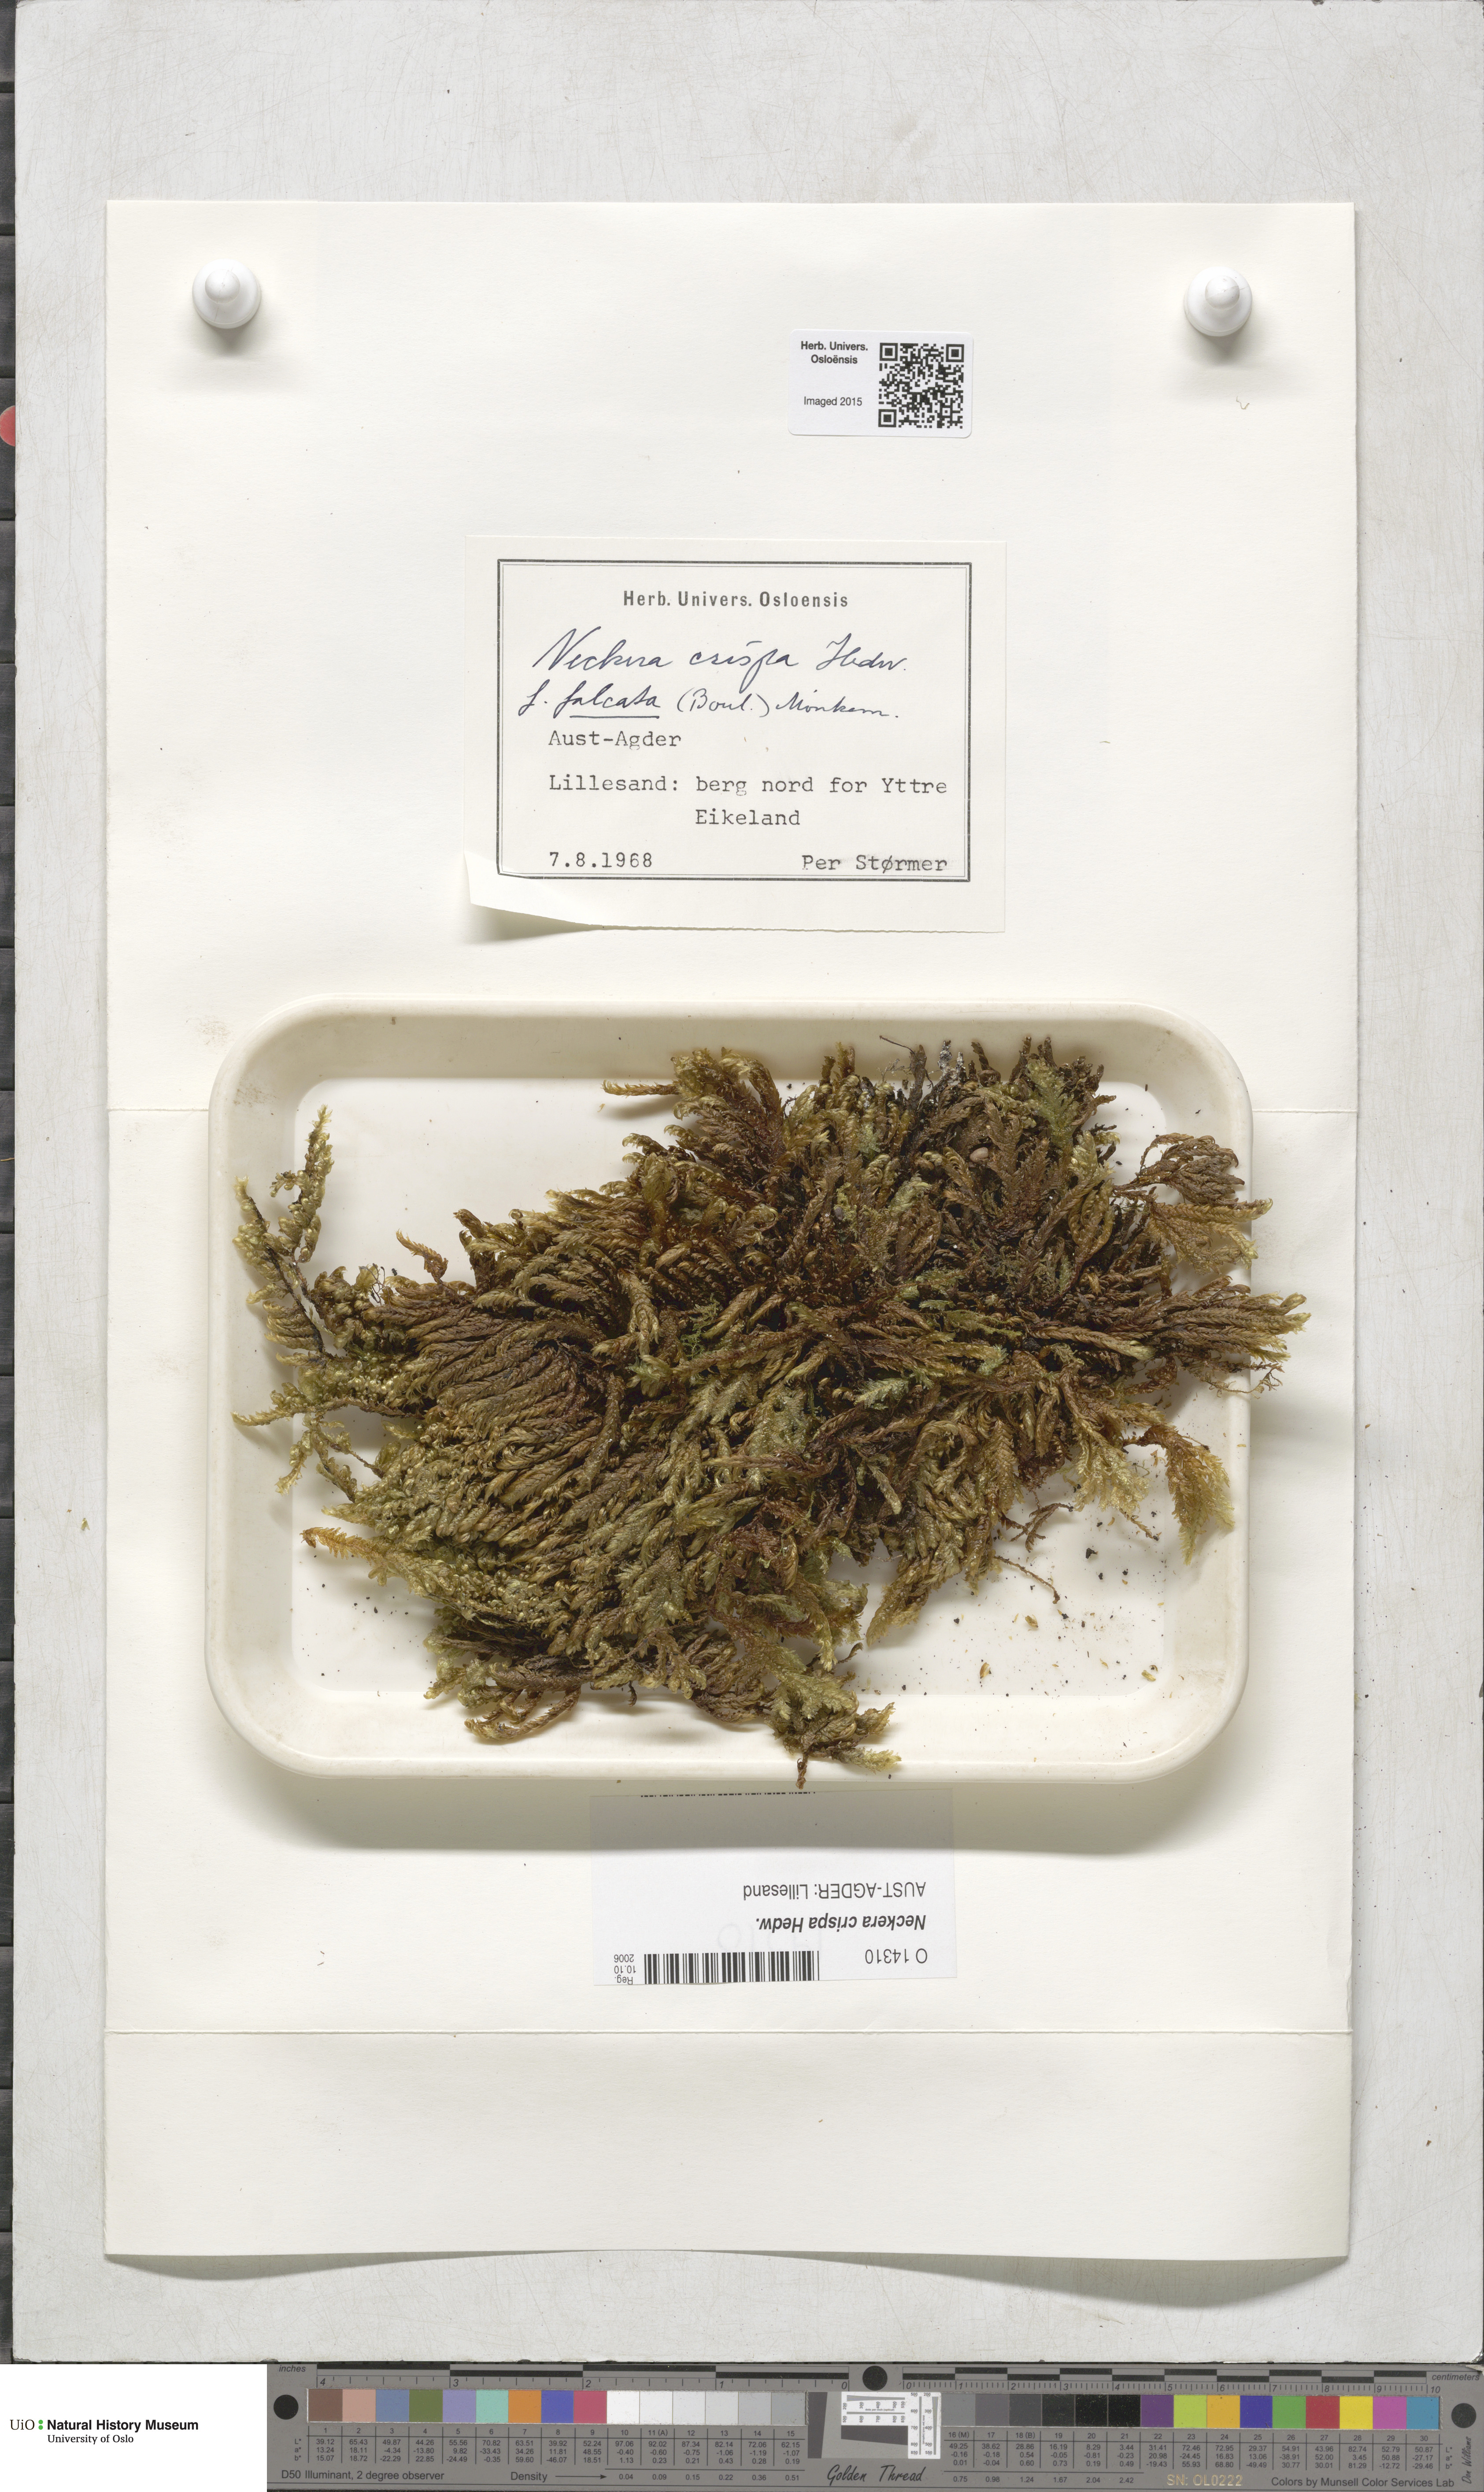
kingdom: Plantae
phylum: Bryophyta
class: Bryopsida
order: Hypnales
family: Neckeraceae
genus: Exsertotheca
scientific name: Exsertotheca crispa
